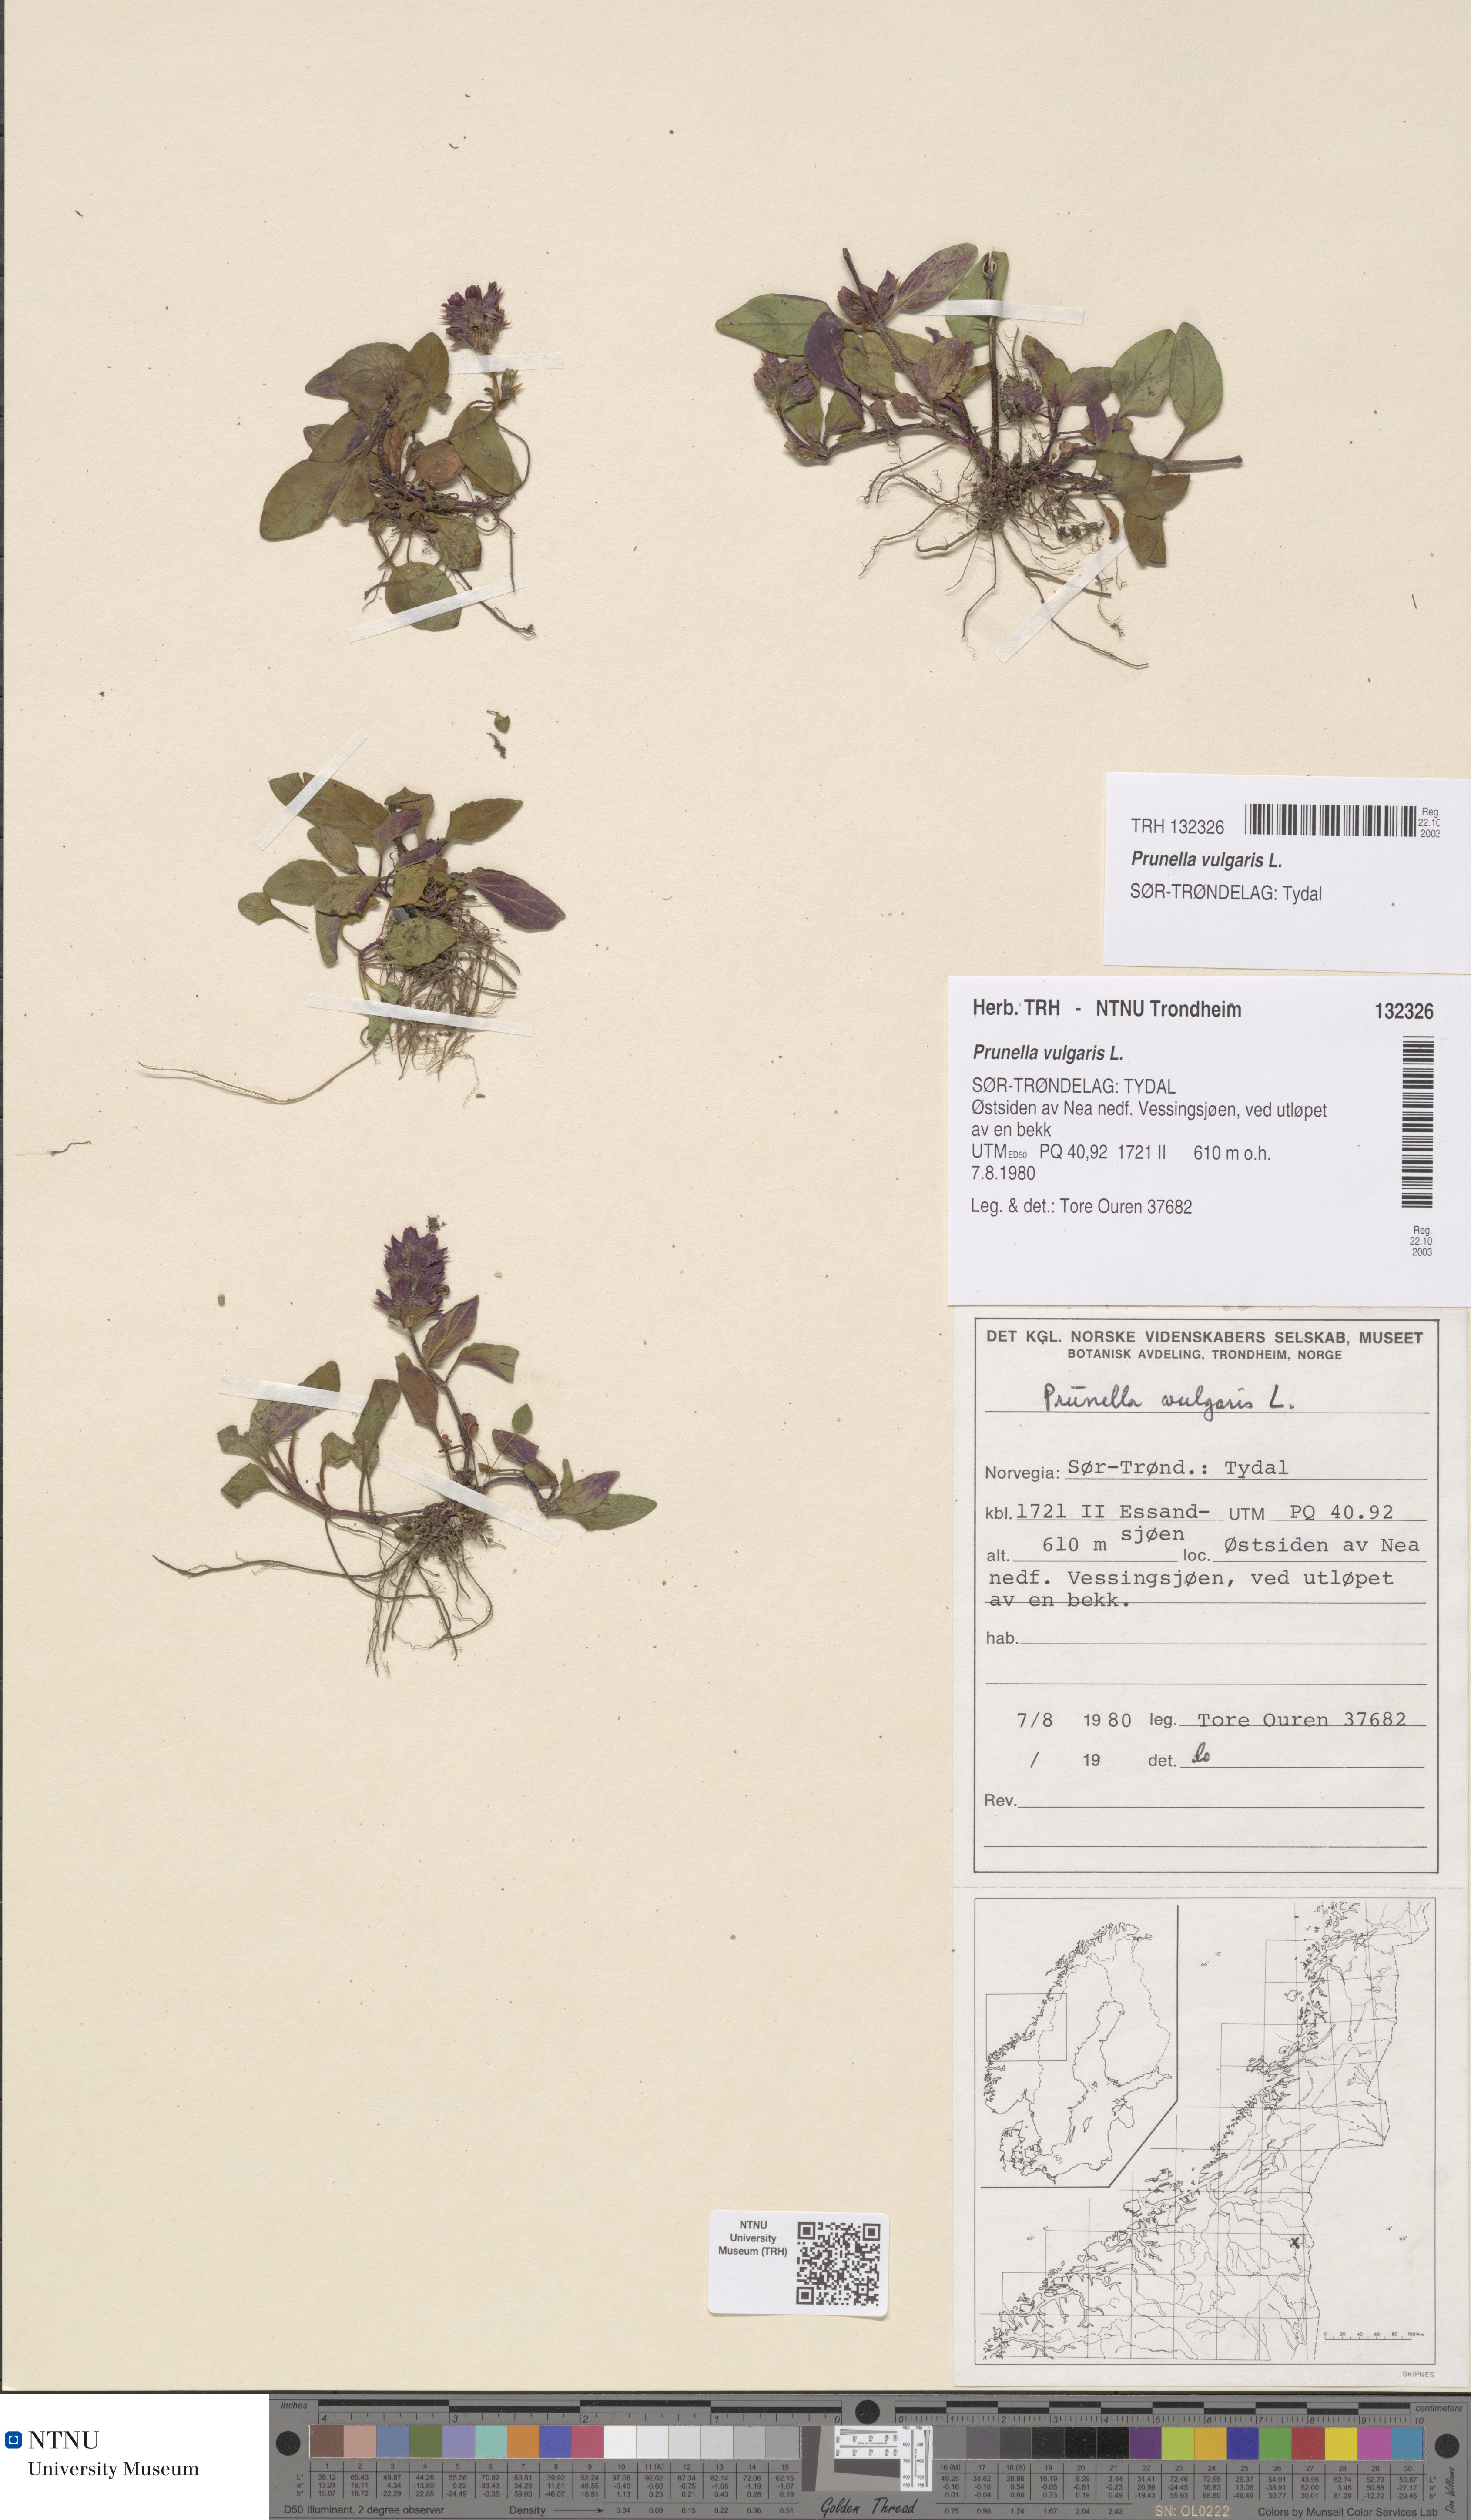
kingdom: Plantae
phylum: Tracheophyta
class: Magnoliopsida
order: Lamiales
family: Lamiaceae
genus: Prunella
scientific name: Prunella vulgaris
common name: Heal-all
